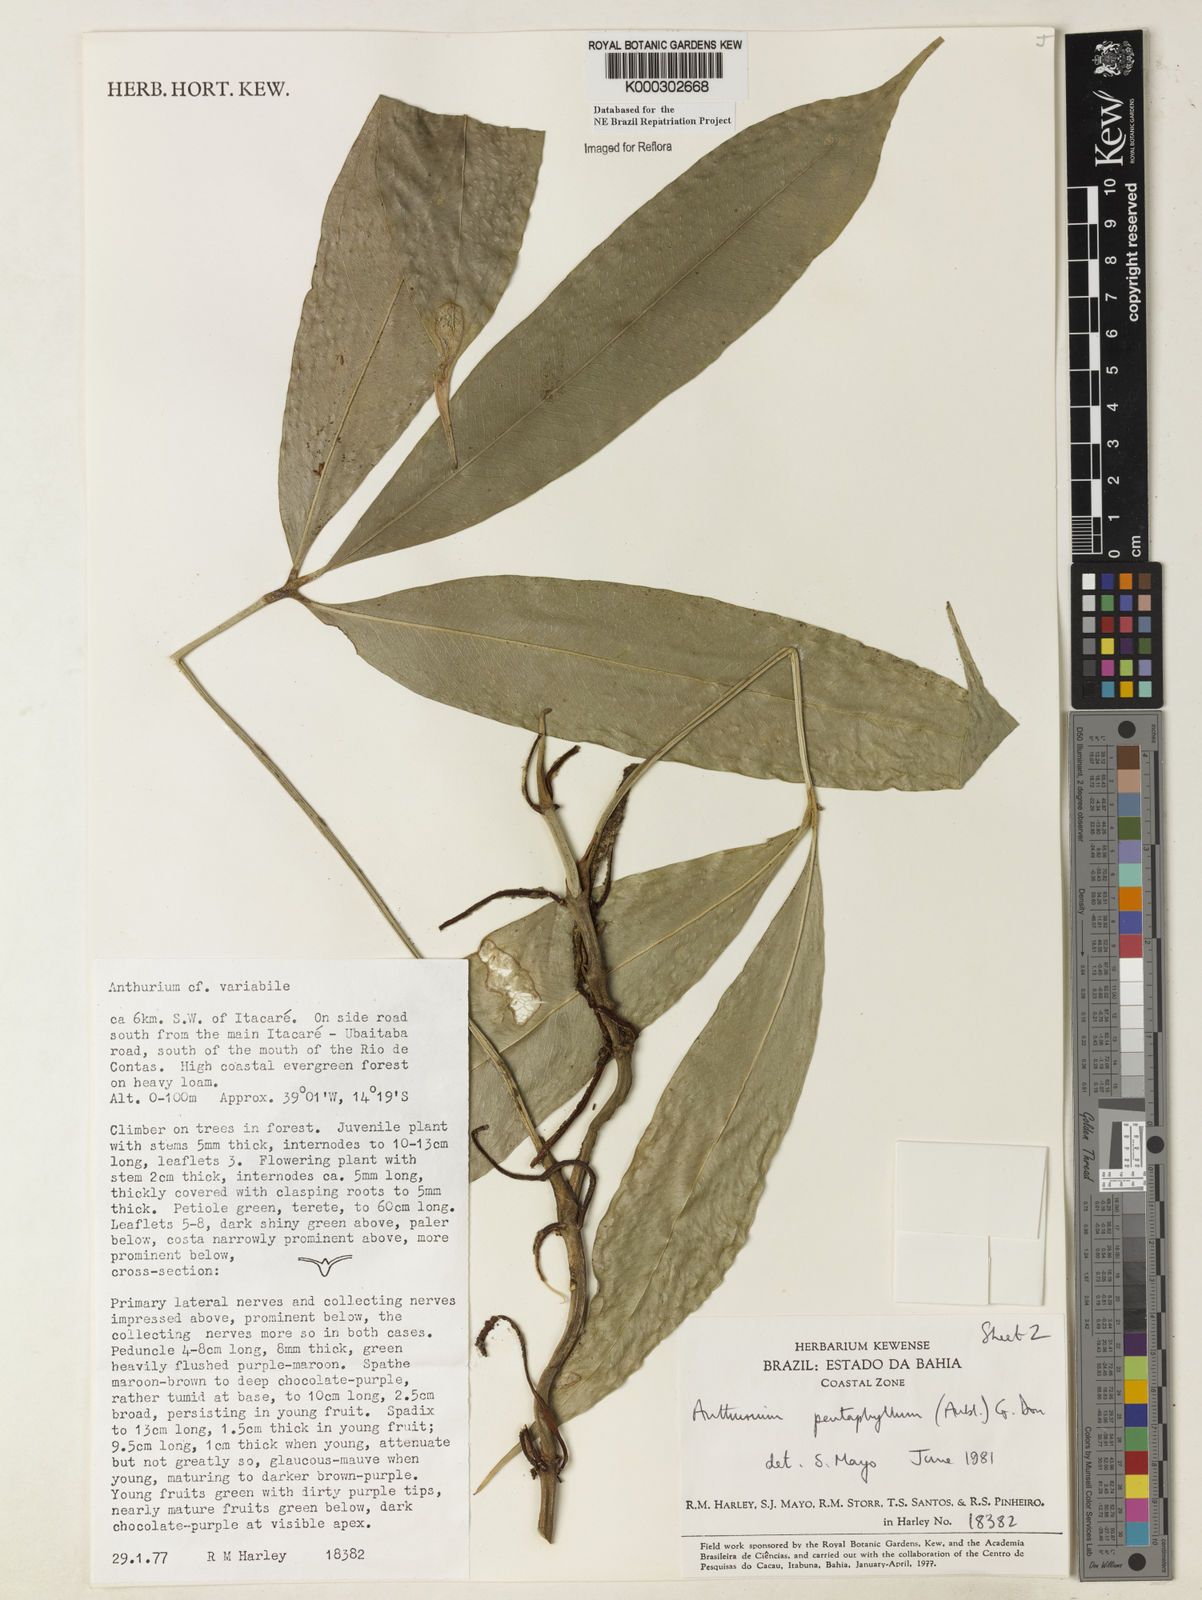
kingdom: Plantae
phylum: Tracheophyta
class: Liliopsida
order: Alismatales
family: Araceae
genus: Anthurium
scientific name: Anthurium pentaphyllum
